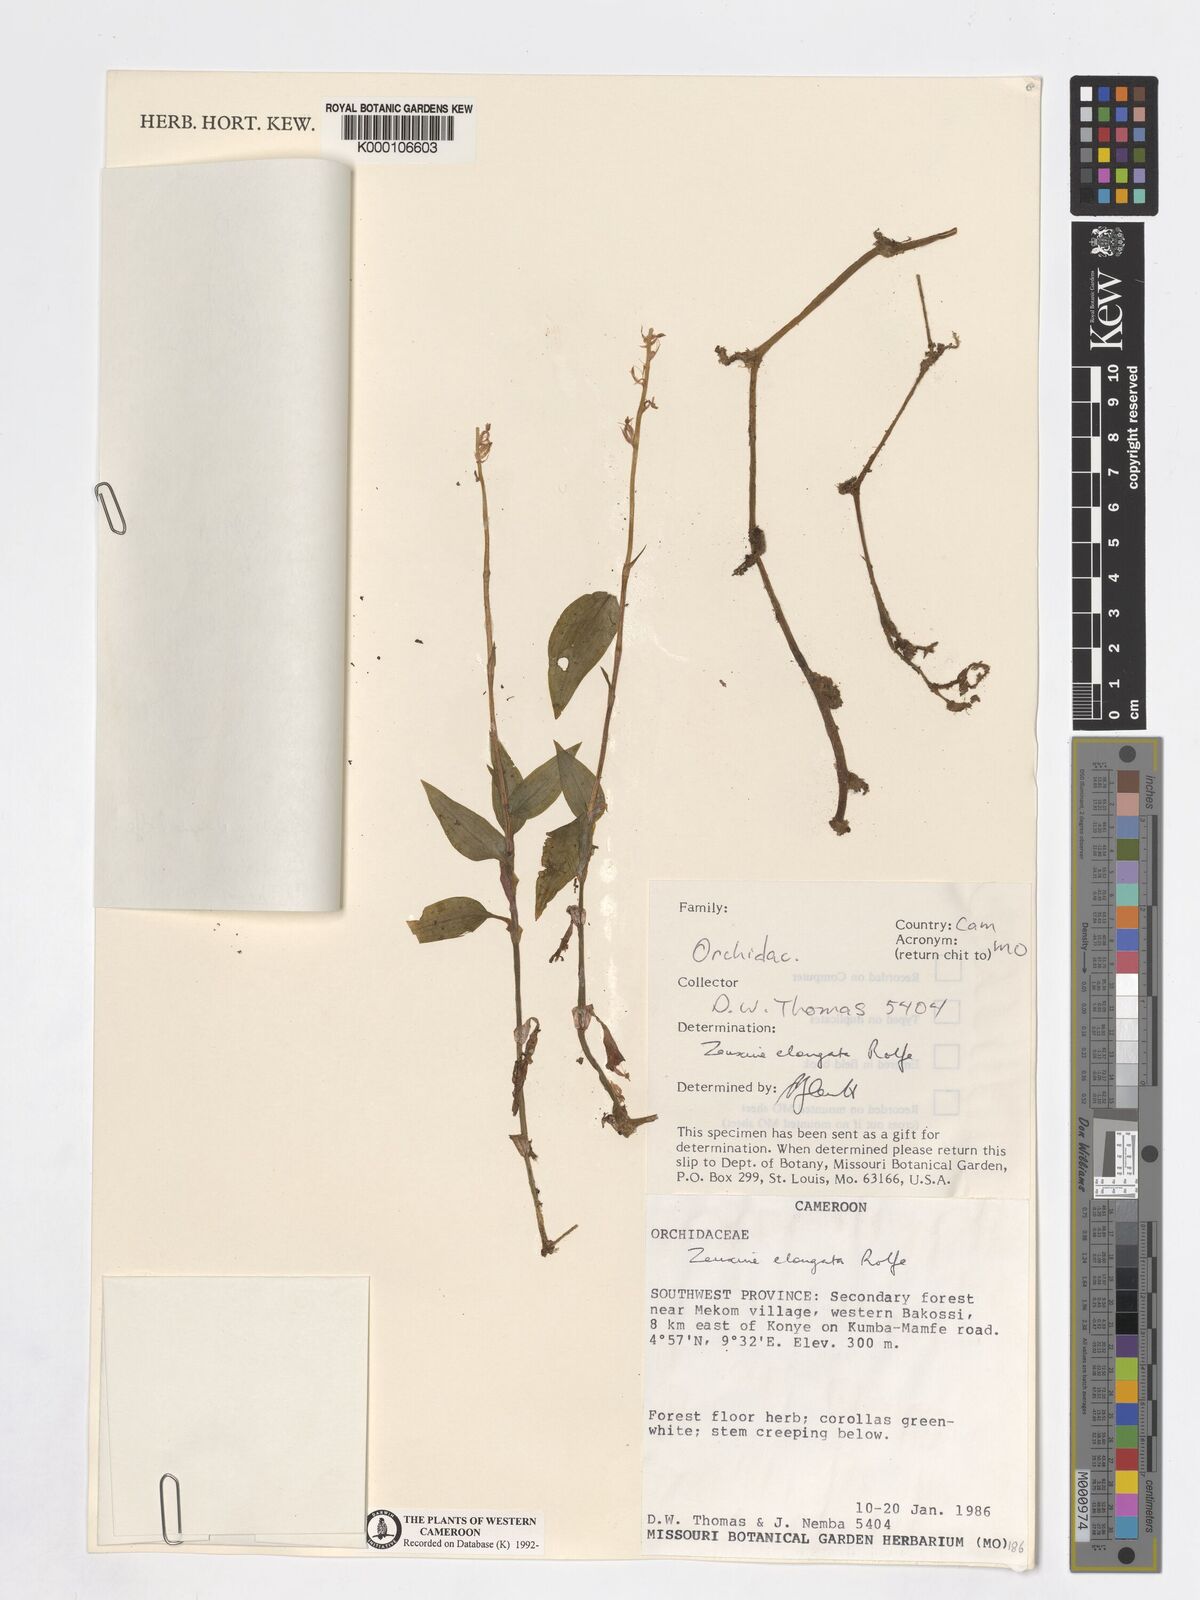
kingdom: Plantae
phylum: Tracheophyta
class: Liliopsida
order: Asparagales
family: Orchidaceae
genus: Zeuxine
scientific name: Zeuxine elongata
